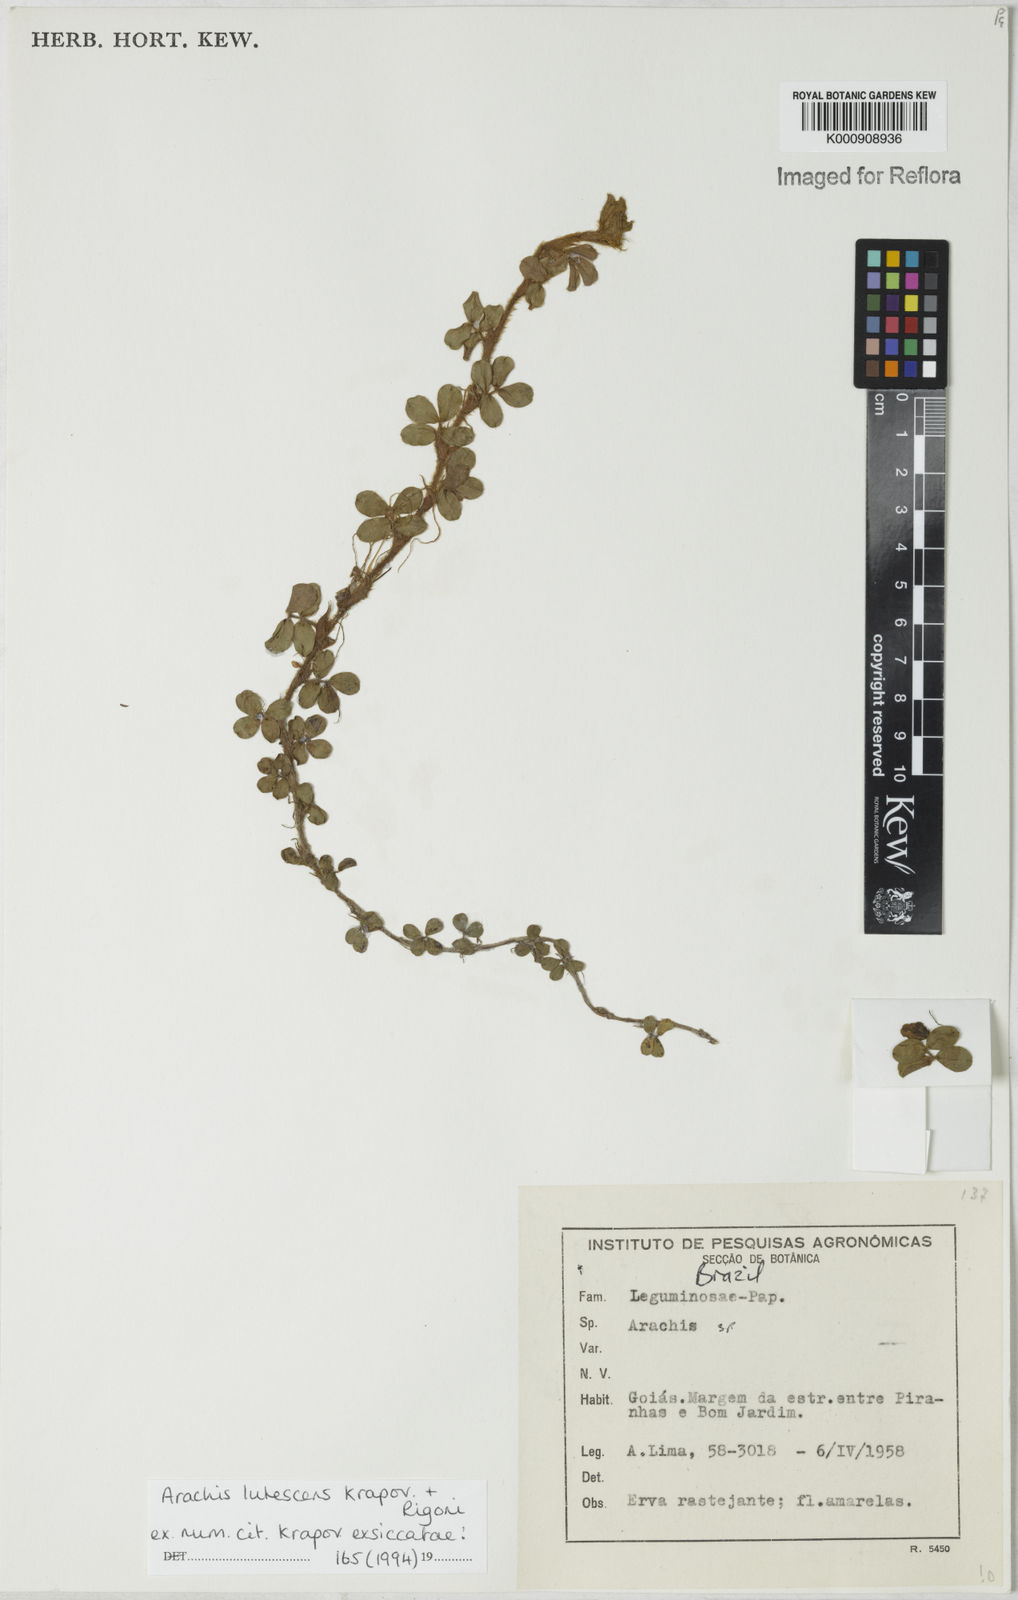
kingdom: Plantae
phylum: Tracheophyta
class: Magnoliopsida
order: Fabales
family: Fabaceae
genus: Arachis
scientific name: Arachis lutescens
